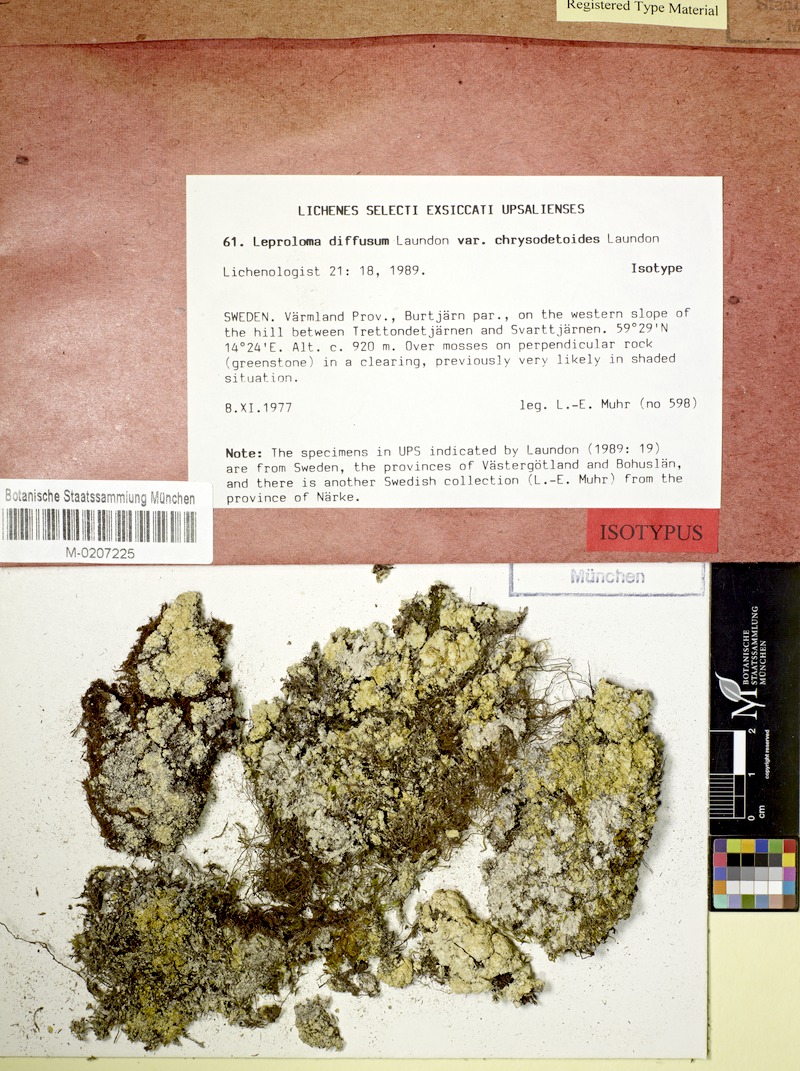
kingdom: Fungi
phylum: Ascomycota
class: Lecanoromycetes
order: Lecanorales
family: Stereocaulaceae
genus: Lepraria
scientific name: Lepraria diffusa
